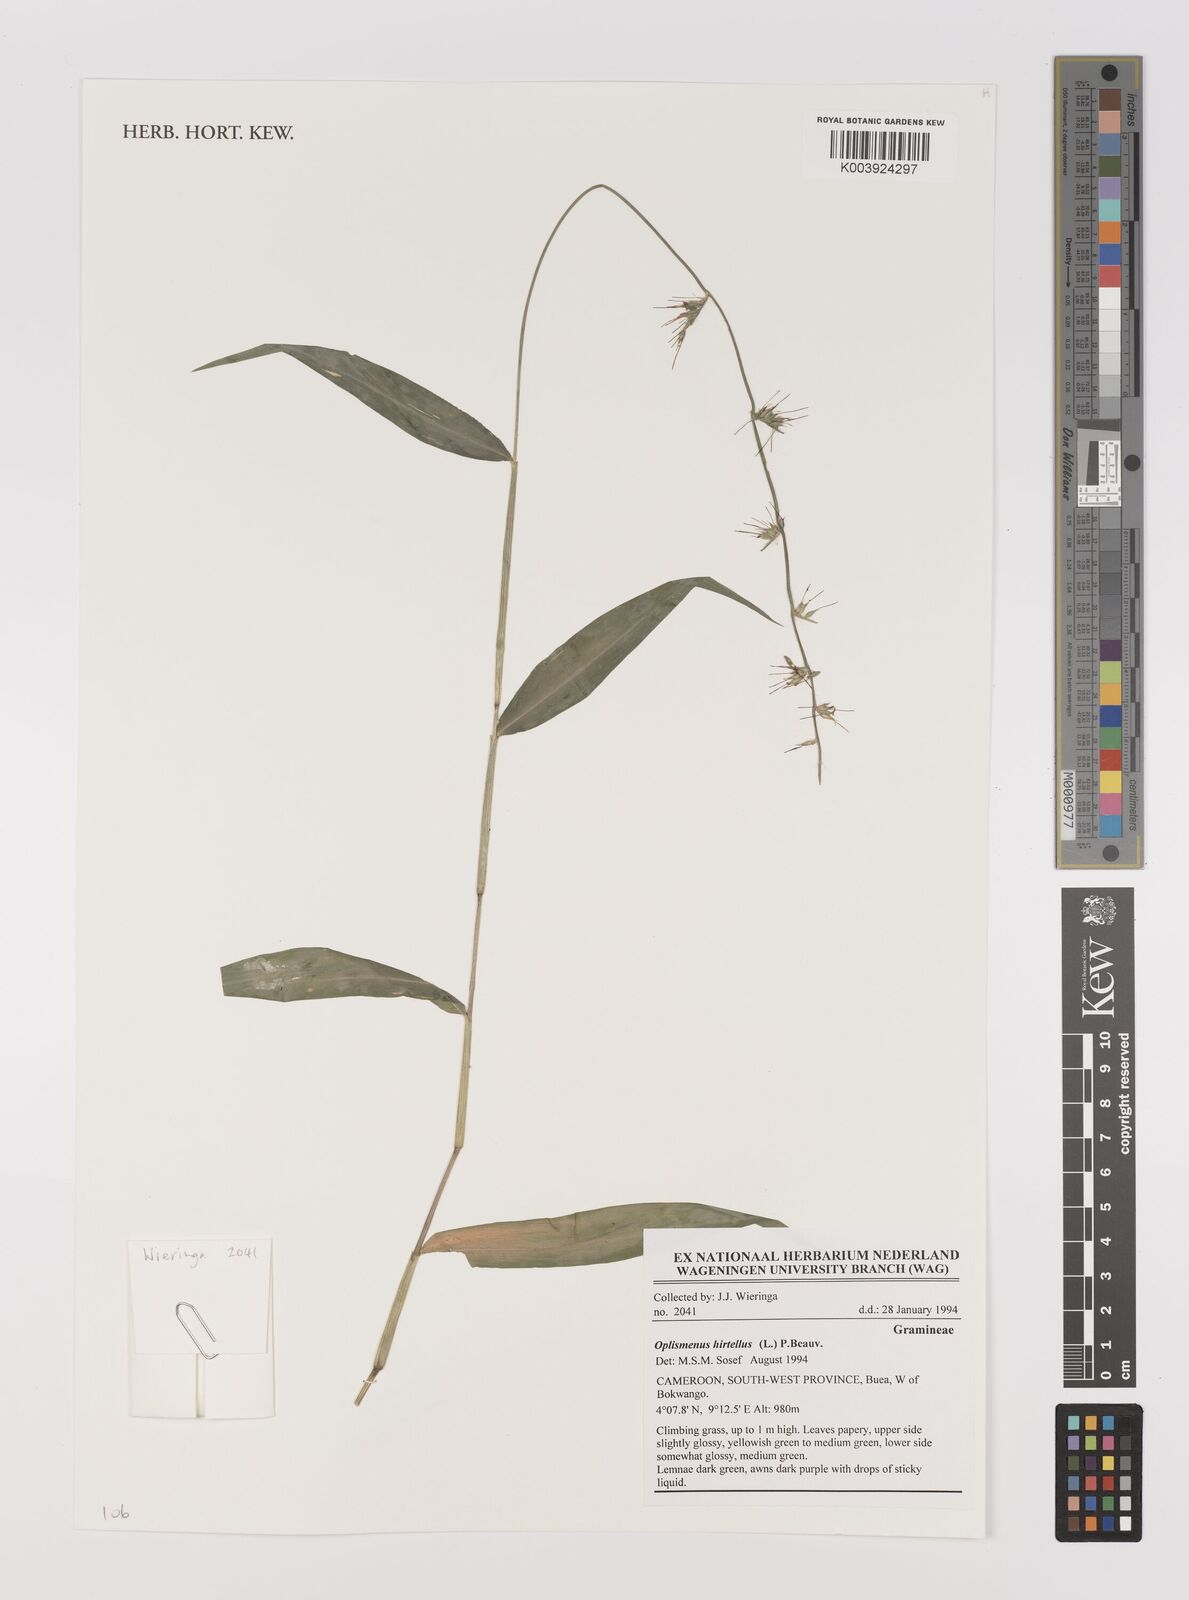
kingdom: Plantae
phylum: Tracheophyta
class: Liliopsida
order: Poales
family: Poaceae
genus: Oplismenus
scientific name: Oplismenus hirtellus
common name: Basketgrass
